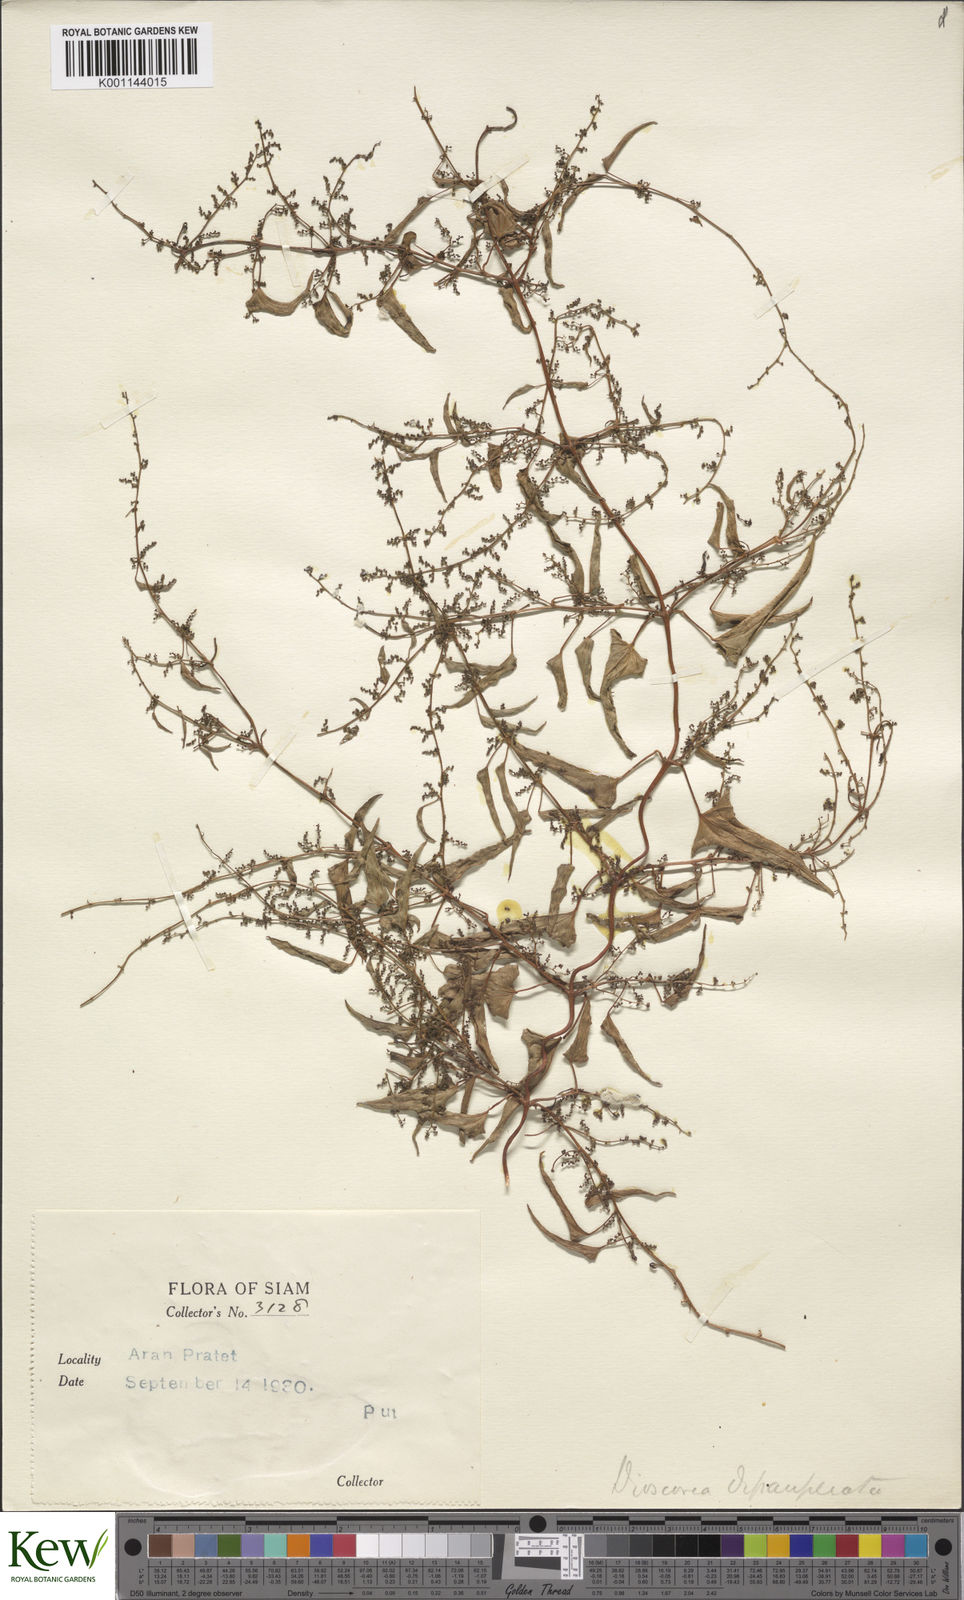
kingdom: Plantae
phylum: Tracheophyta
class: Liliopsida
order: Dioscoreales
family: Dioscoreaceae
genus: Dioscorea
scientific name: Dioscorea depauperata
